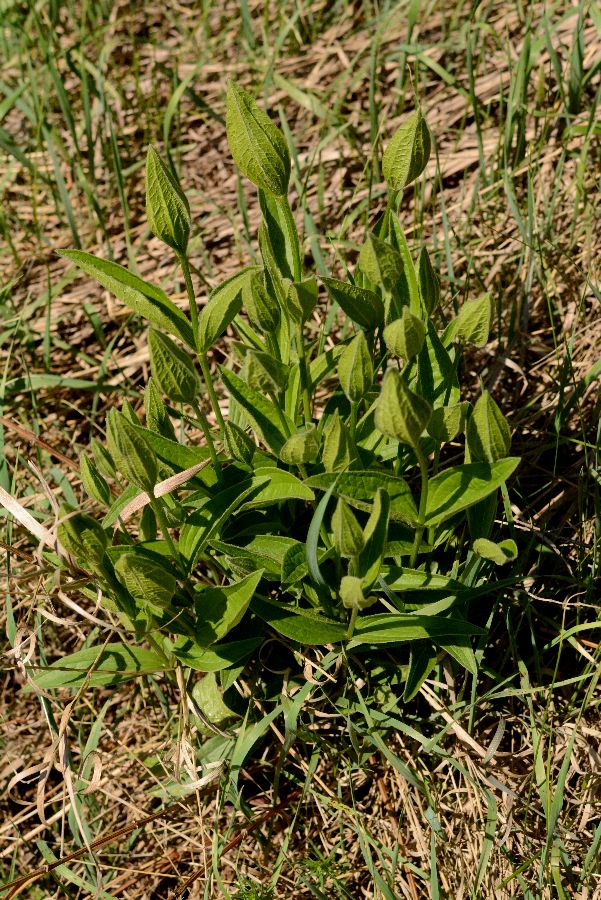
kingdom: Plantae
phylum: Tracheophyta
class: Magnoliopsida
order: Ranunculales
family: Ranunculaceae
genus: Clematis
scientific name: Clematis integrifolia
